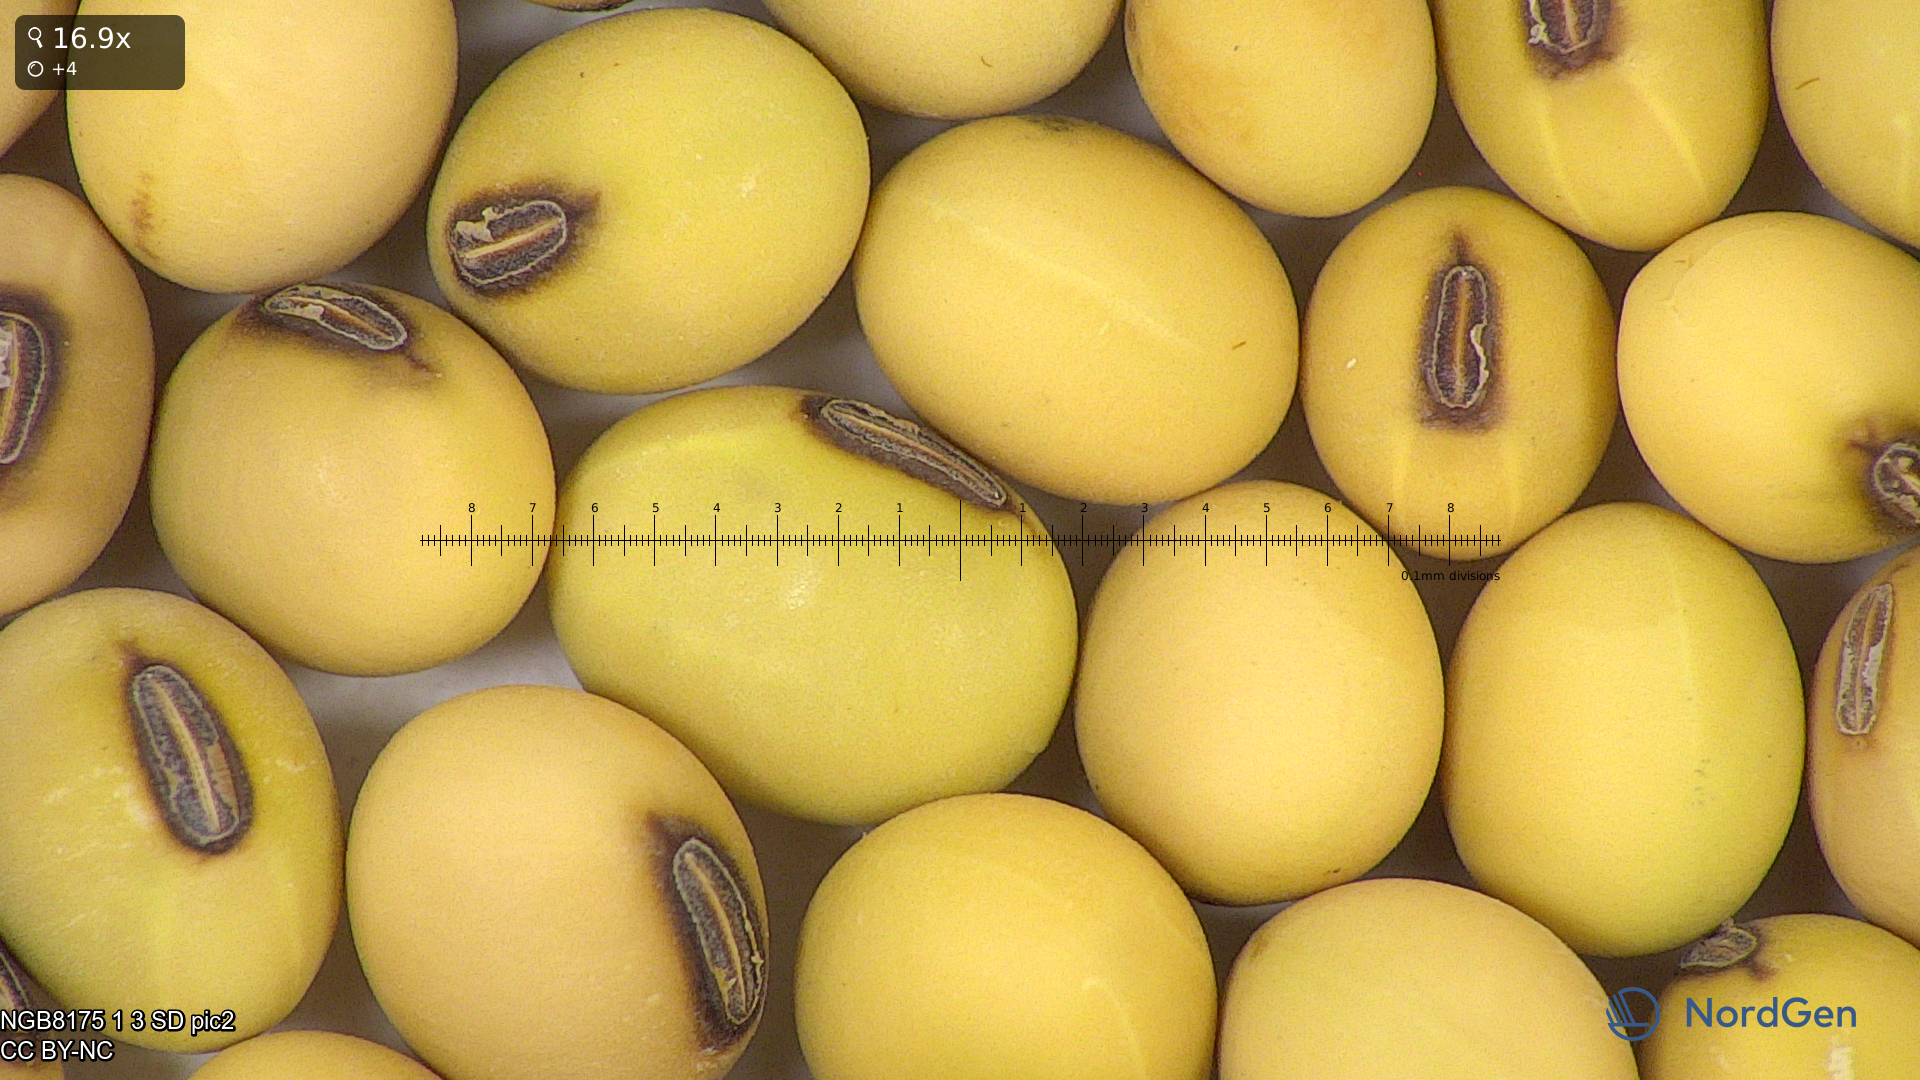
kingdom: Plantae
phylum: Tracheophyta
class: Magnoliopsida
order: Fabales
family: Fabaceae
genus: Glycine
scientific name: Glycine max
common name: Soya-bean
